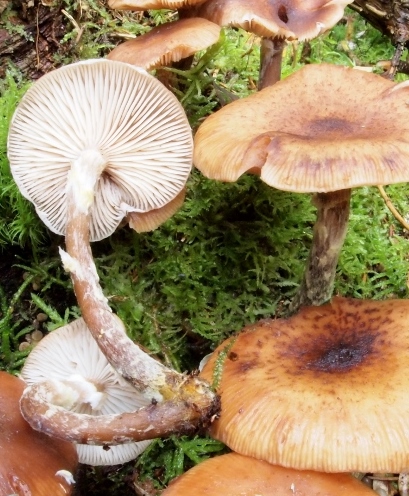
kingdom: Fungi
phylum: Basidiomycota
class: Agaricomycetes
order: Agaricales
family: Physalacriaceae
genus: Armillaria
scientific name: Armillaria ostoyae
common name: mørk honningsvamp
